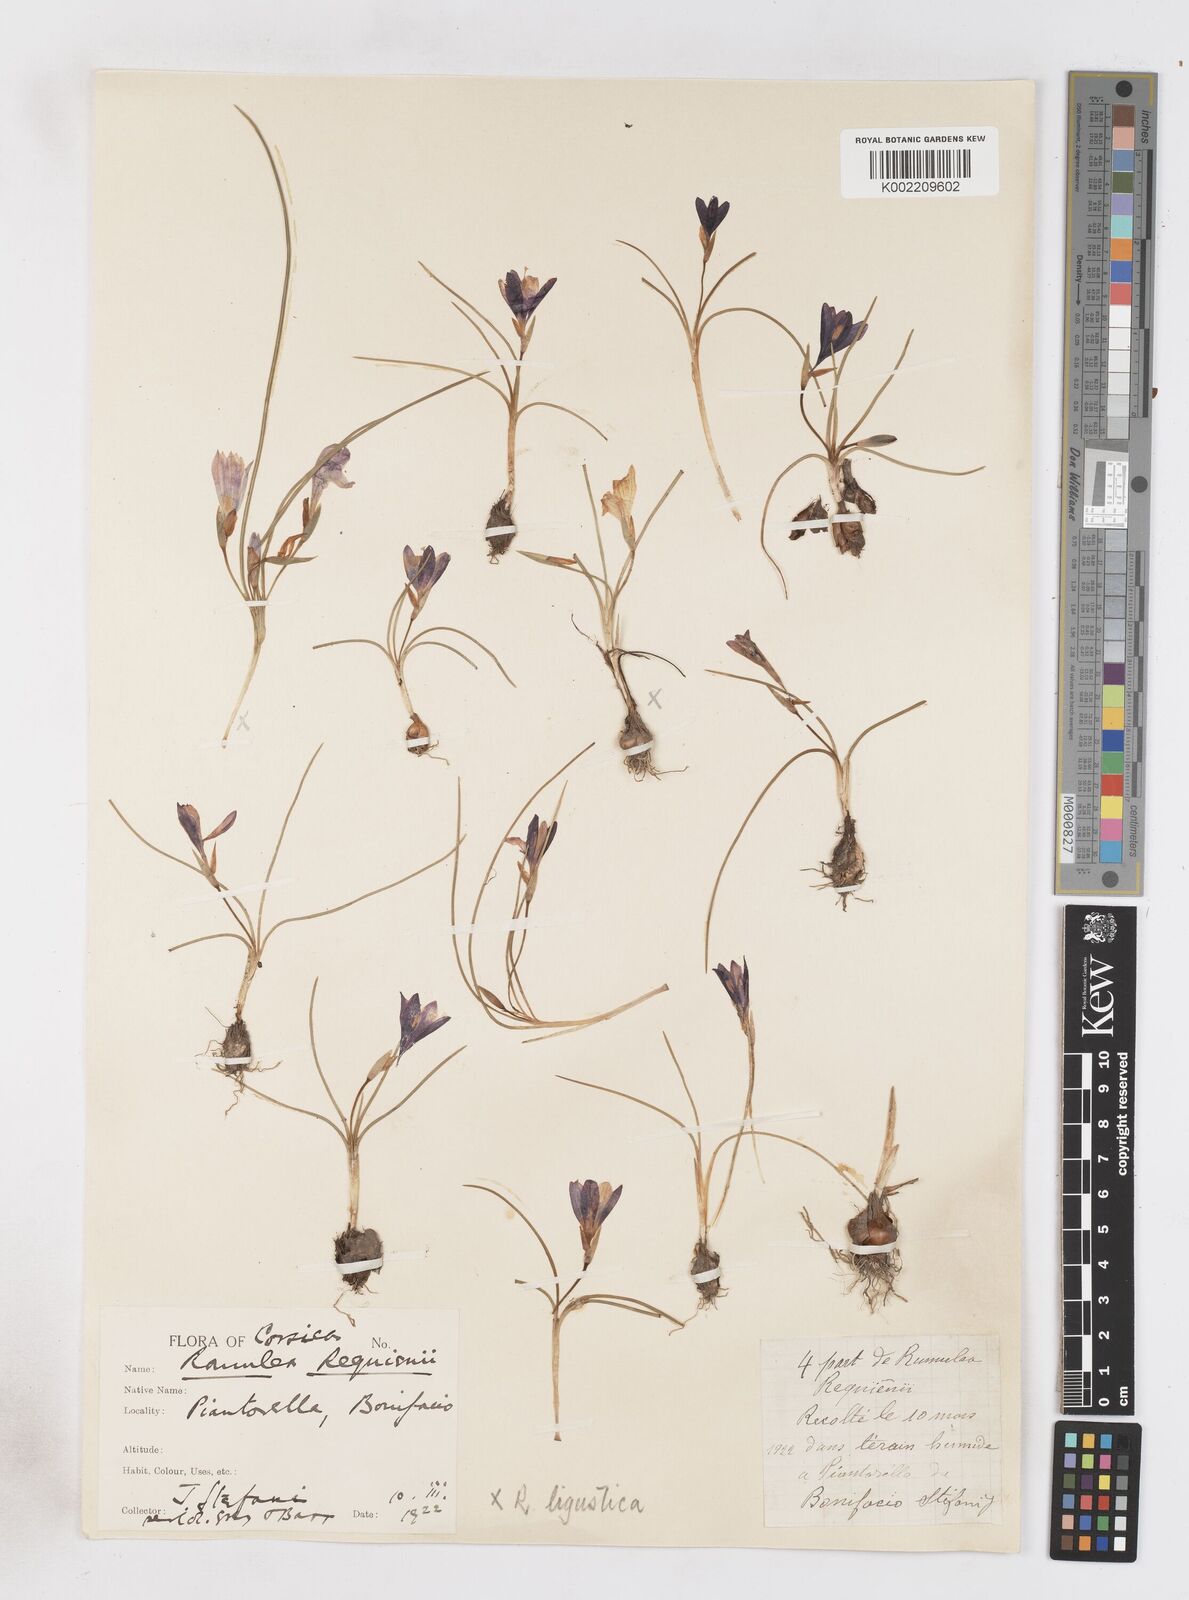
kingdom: Plantae
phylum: Tracheophyta
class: Liliopsida
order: Asparagales
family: Iridaceae
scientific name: Iridaceae
